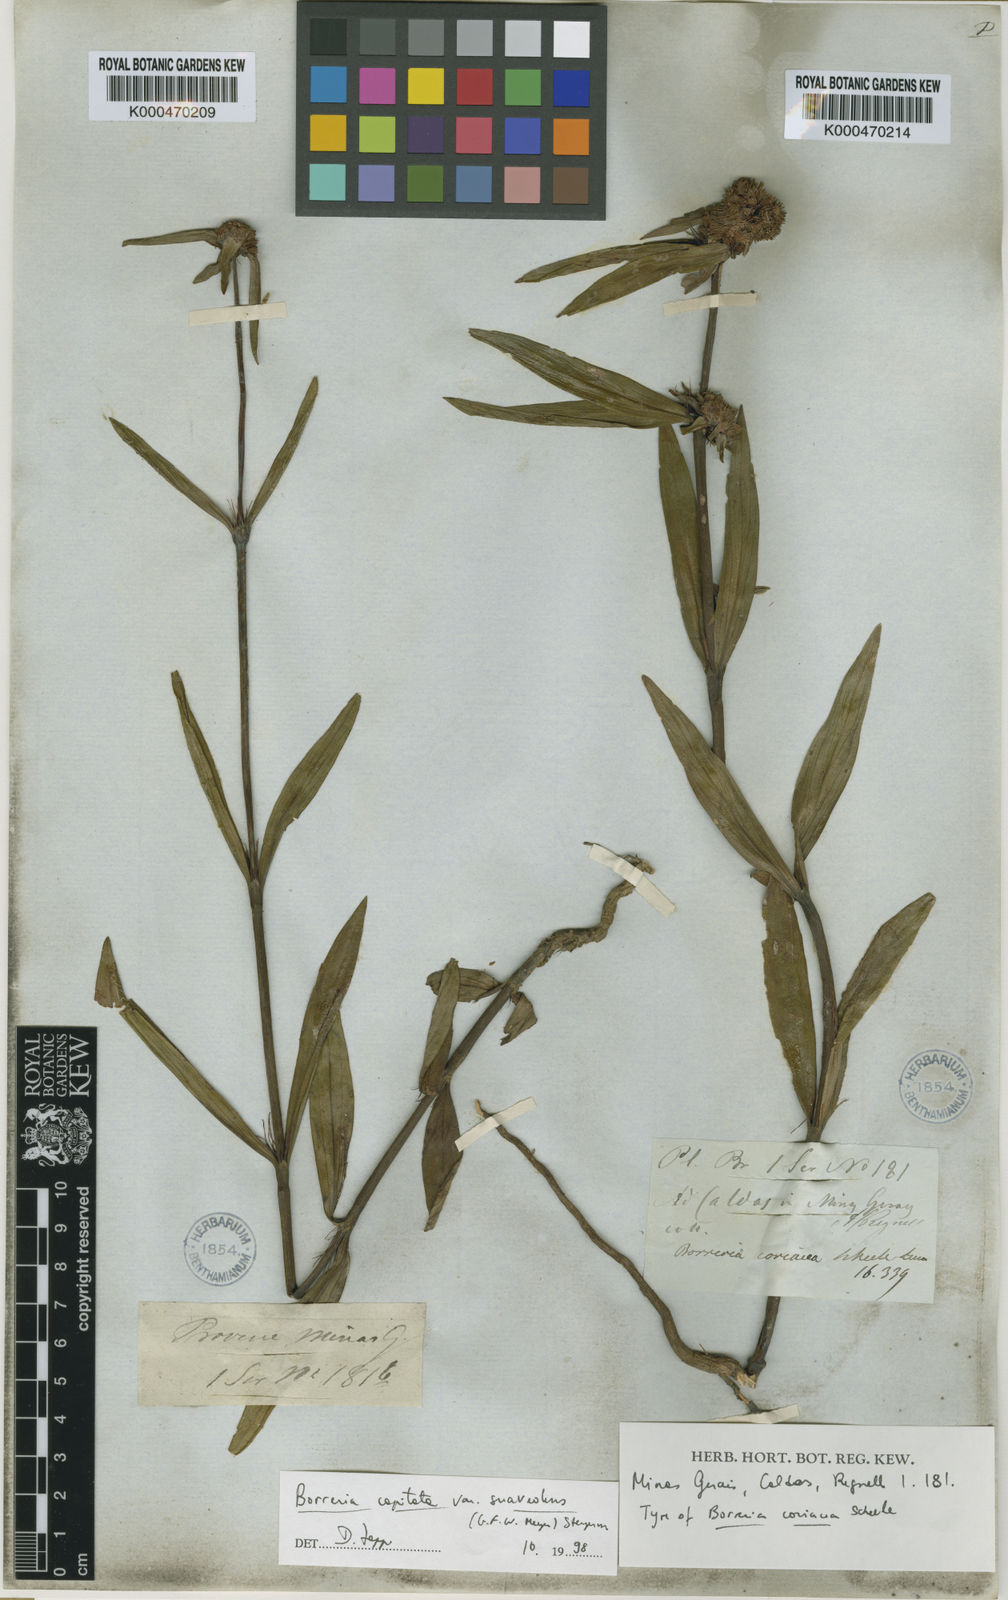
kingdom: Plantae
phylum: Tracheophyta
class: Magnoliopsida
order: Gentianales
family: Rubiaceae
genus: Spermacoce
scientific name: Spermacoce capitata
